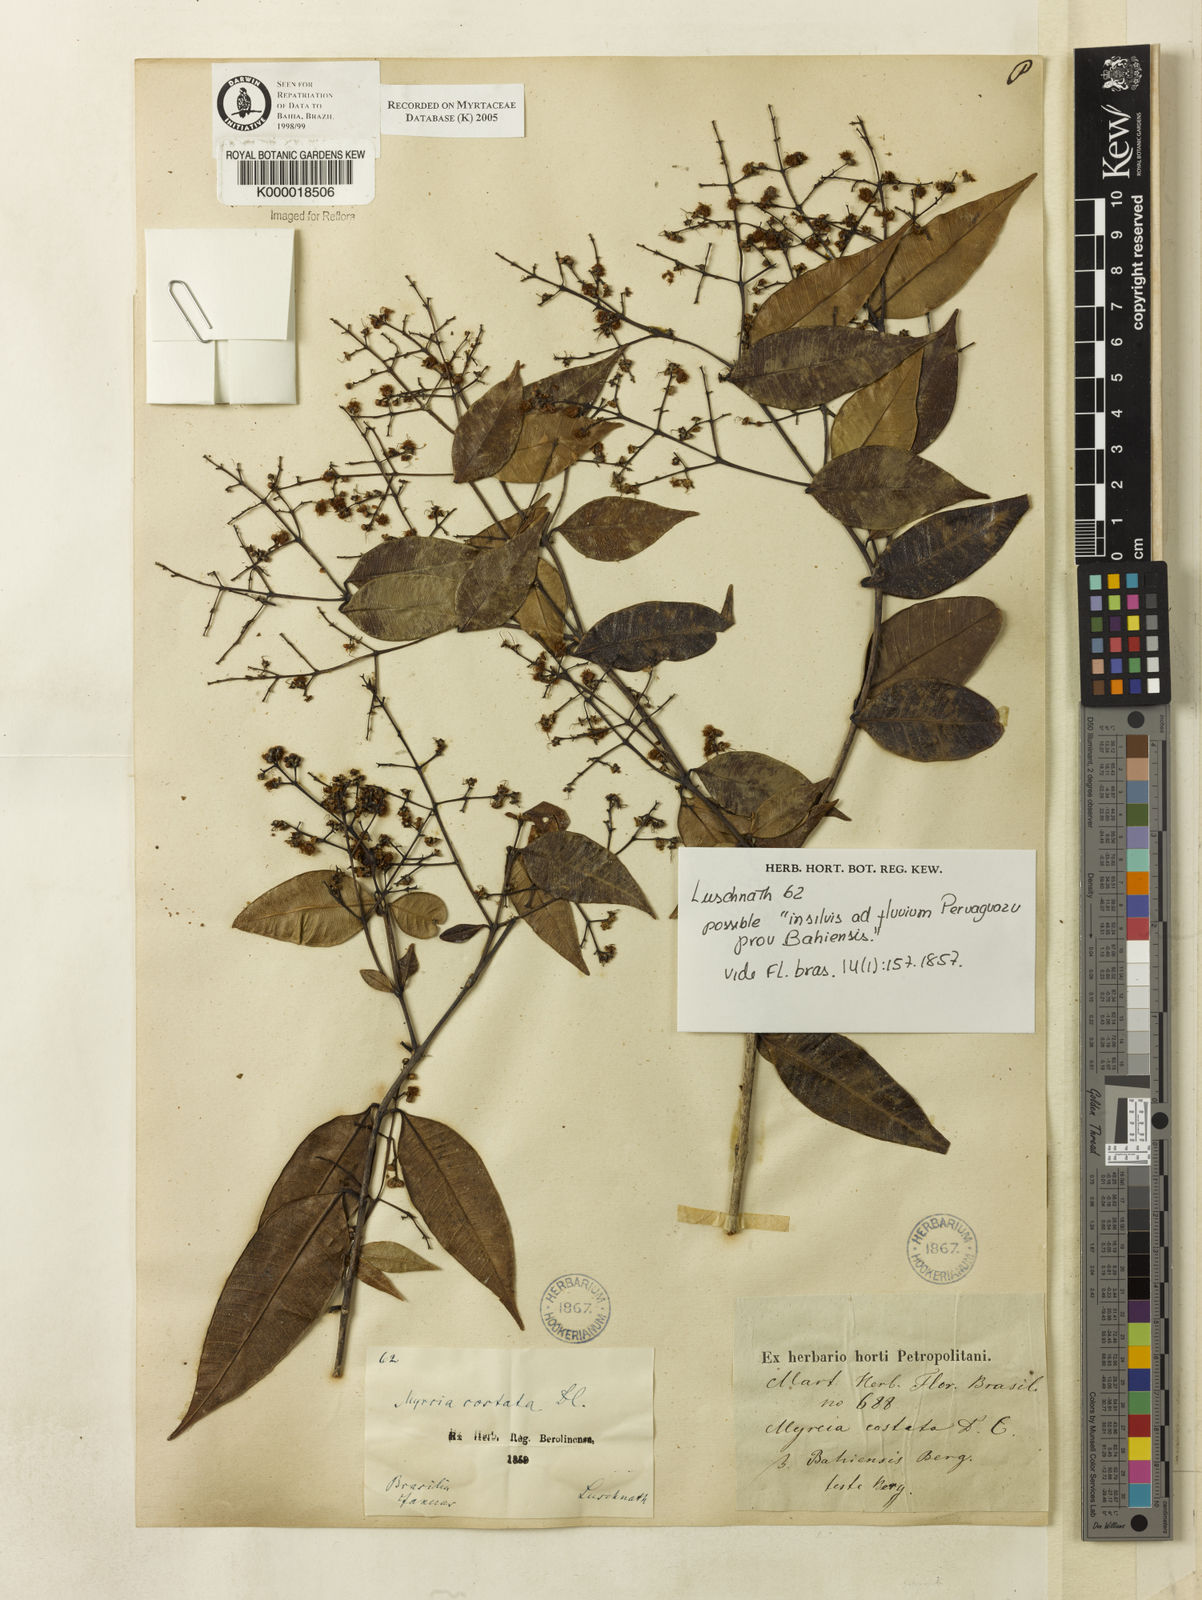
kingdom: Plantae
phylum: Tracheophyta
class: Magnoliopsida
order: Myrtales
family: Myrtaceae
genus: Myrcia
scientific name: Myrcia
